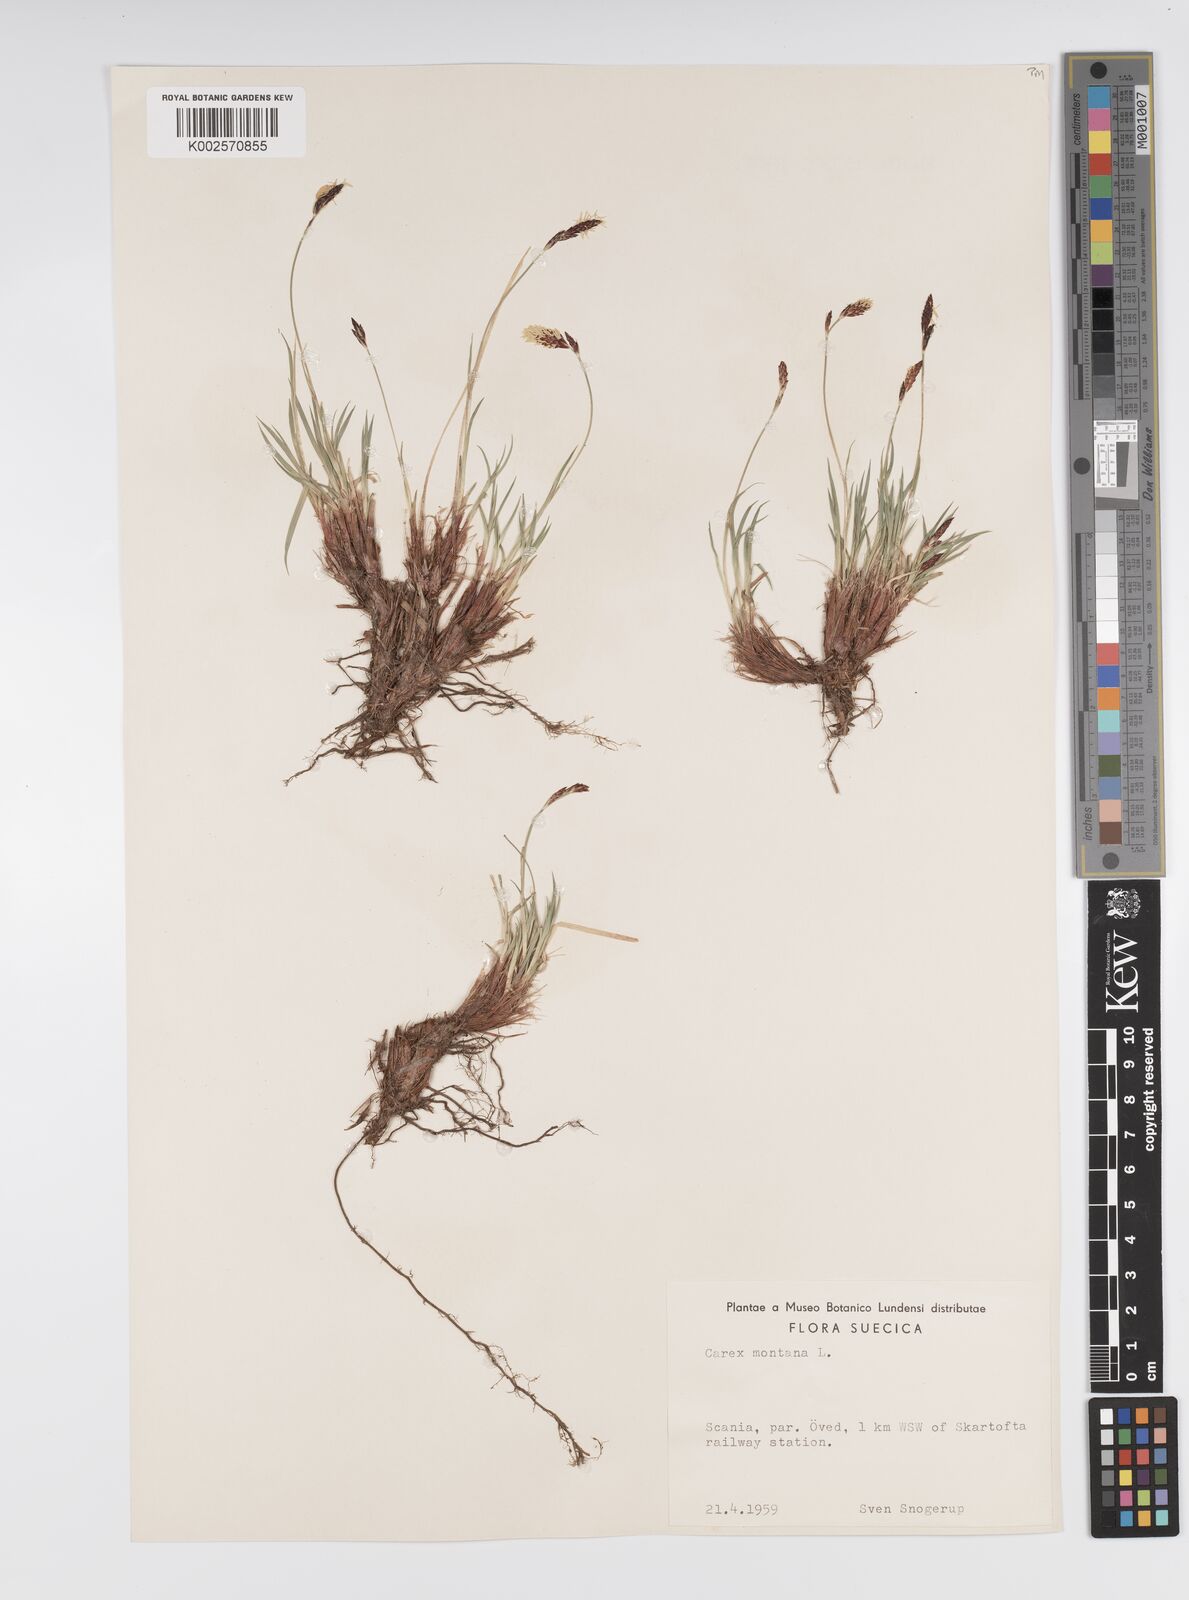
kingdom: Plantae
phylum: Tracheophyta
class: Liliopsida
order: Poales
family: Cyperaceae
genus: Carex
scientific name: Carex montana
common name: Soft-leaved sedge
